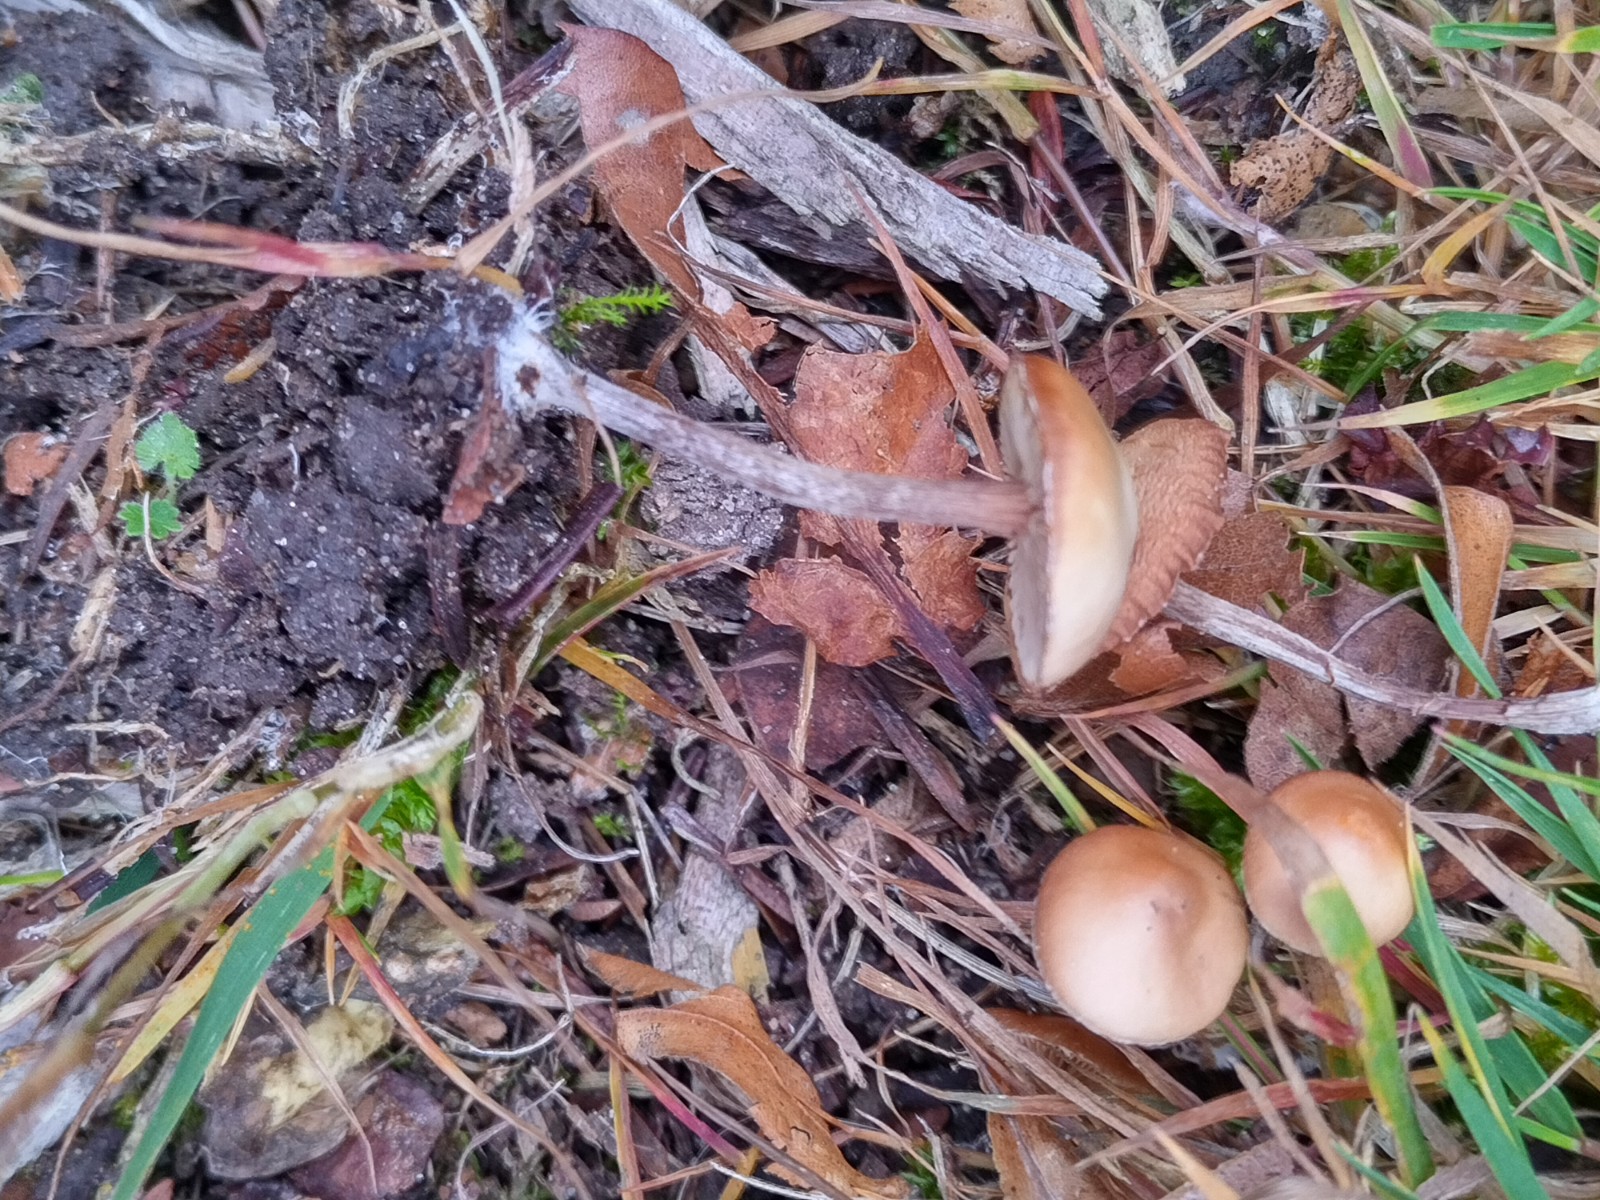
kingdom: Fungi
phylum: Basidiomycota
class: Agaricomycetes
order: Agaricales
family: Hymenogastraceae
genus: Galerina
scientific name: Galerina
